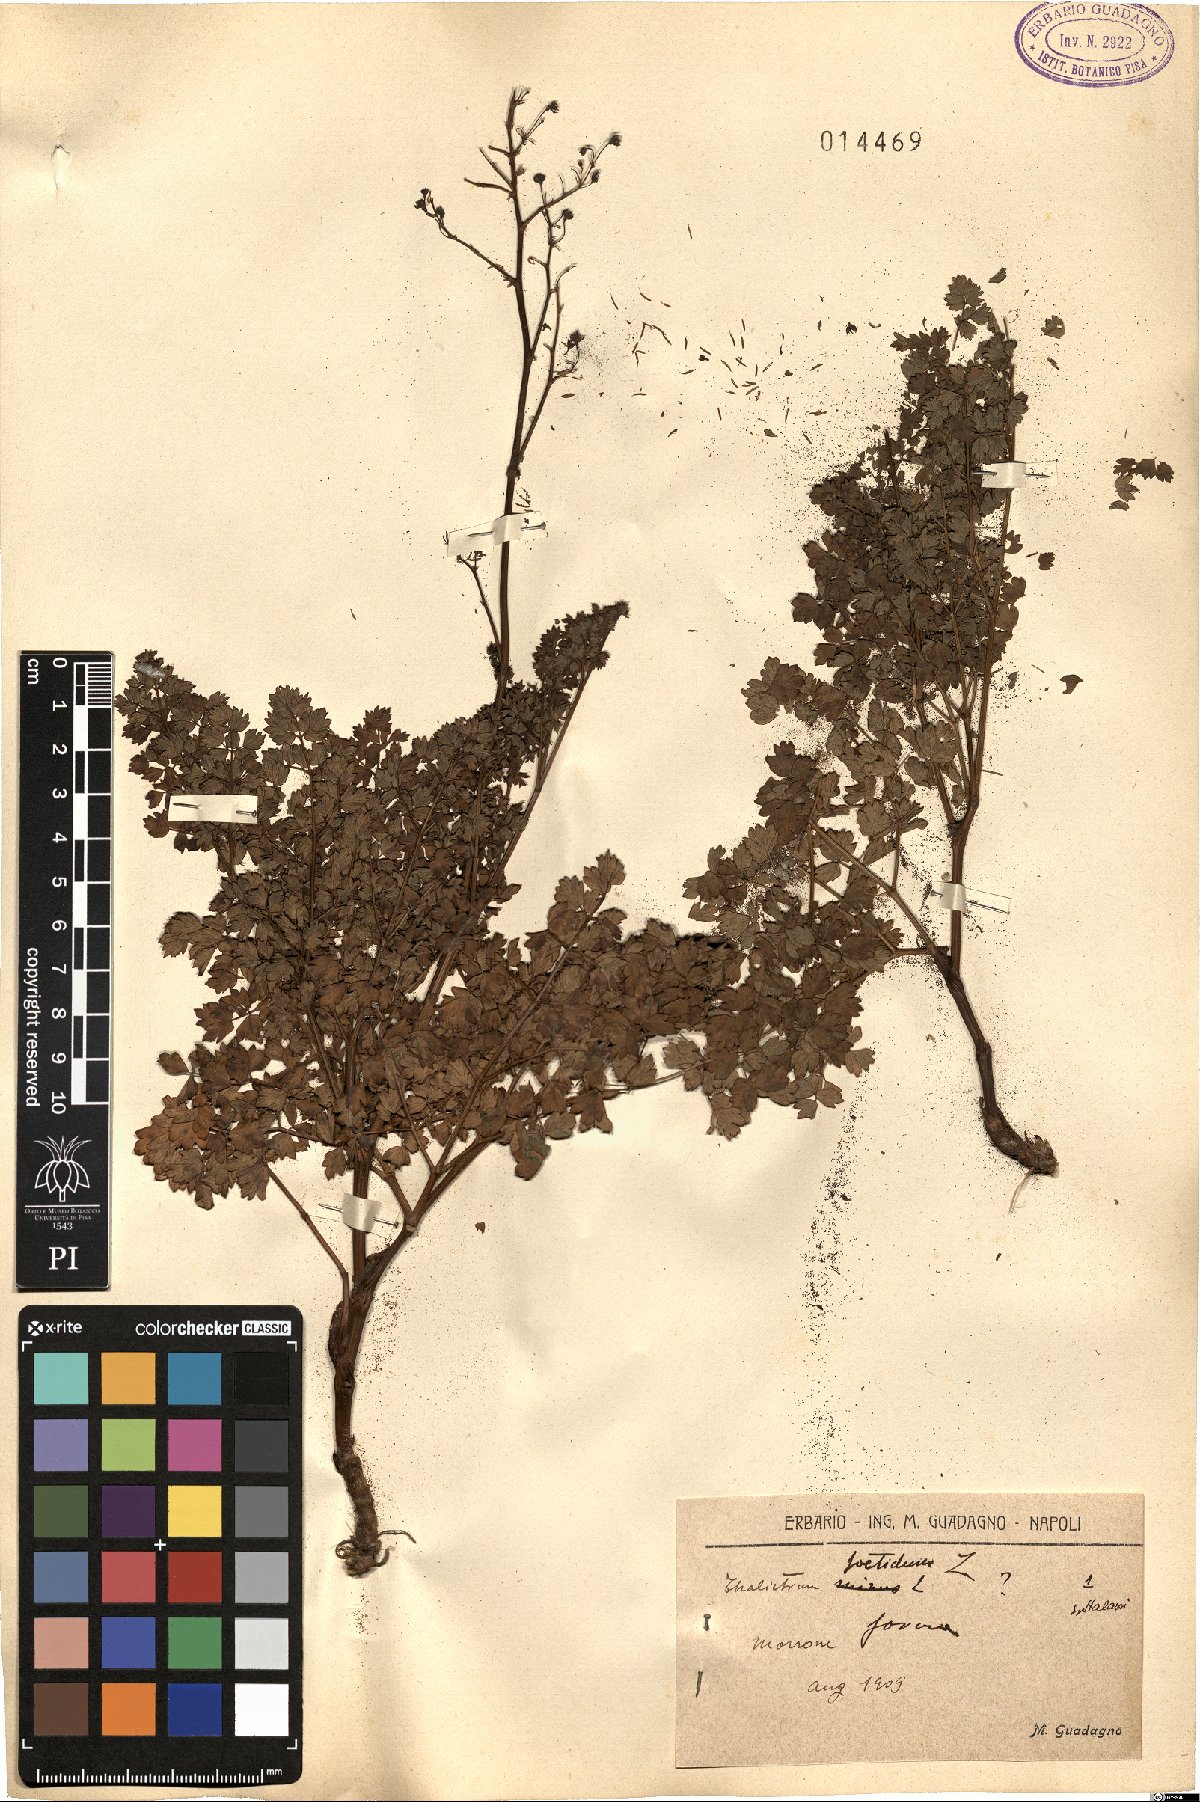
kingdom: Plantae
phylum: Tracheophyta
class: Magnoliopsida
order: Ranunculales
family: Ranunculaceae
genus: Thalictrum
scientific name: Thalictrum foetidum
